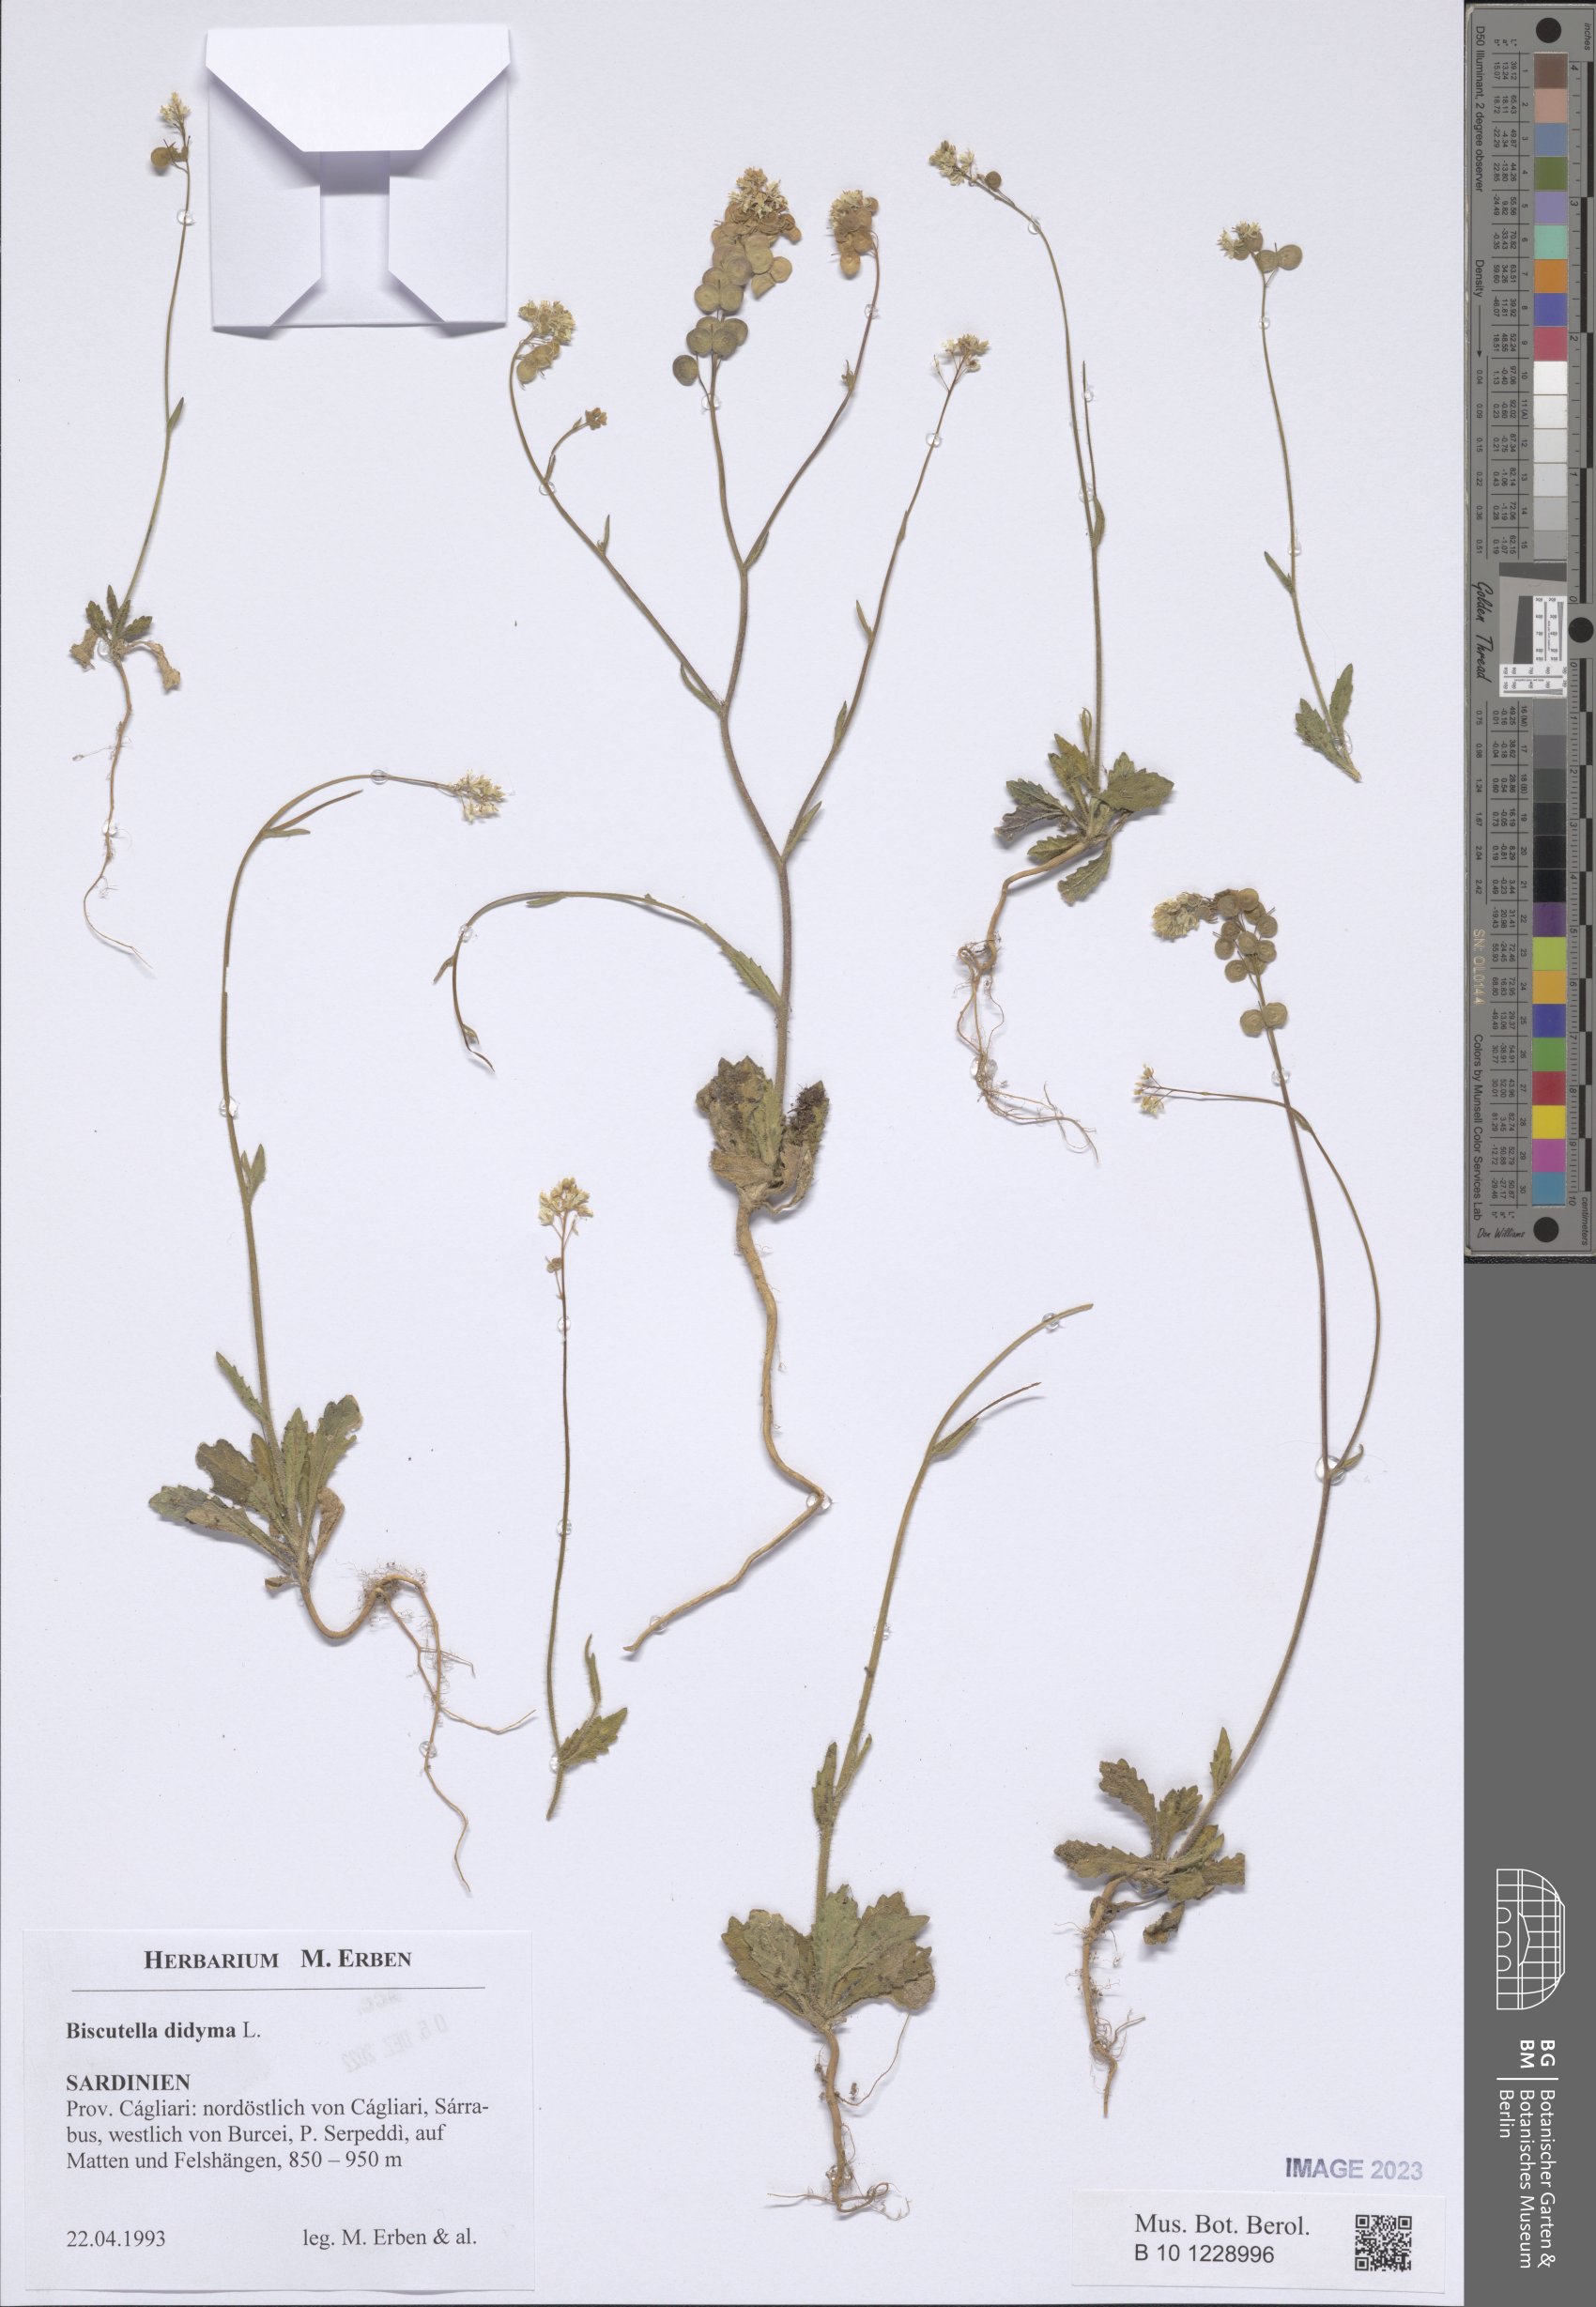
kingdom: Plantae
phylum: Tracheophyta
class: Magnoliopsida
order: Brassicales
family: Brassicaceae
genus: Biscutella
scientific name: Biscutella didyma
